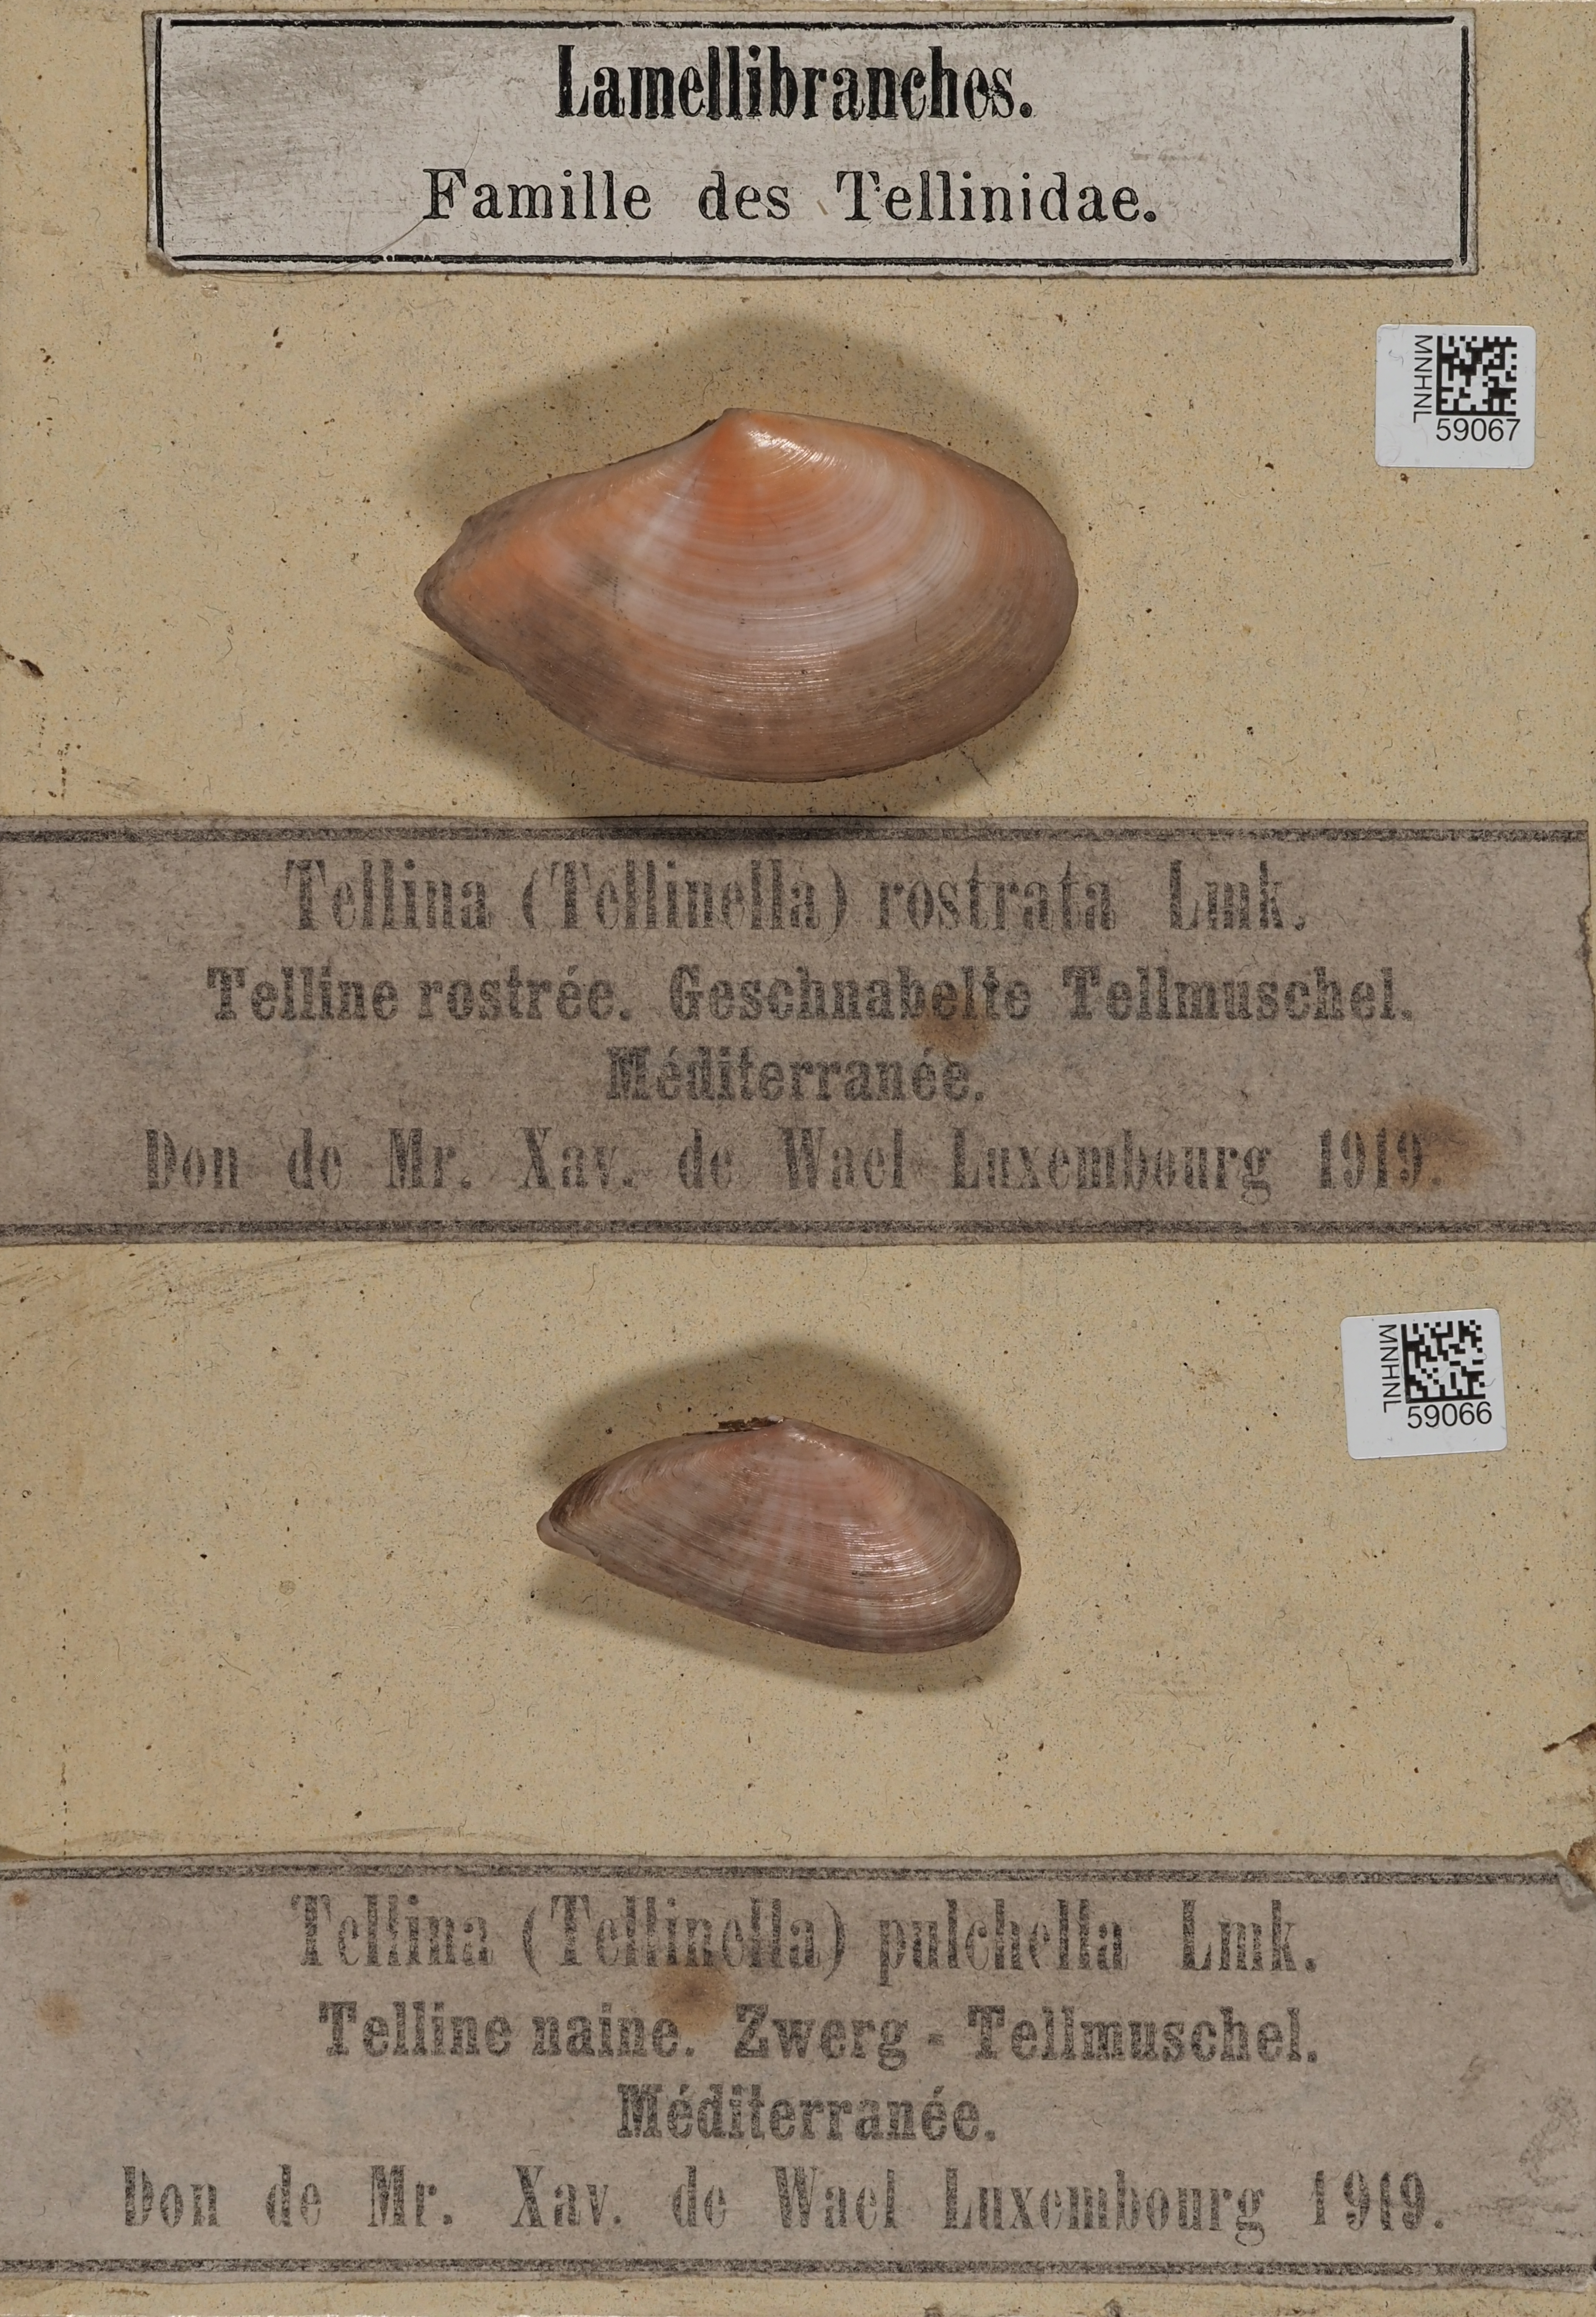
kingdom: Animalia
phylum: Mollusca
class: Bivalvia
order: Cardiida
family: Tellinidae
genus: Dallitellina
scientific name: Dallitellina rostrata
